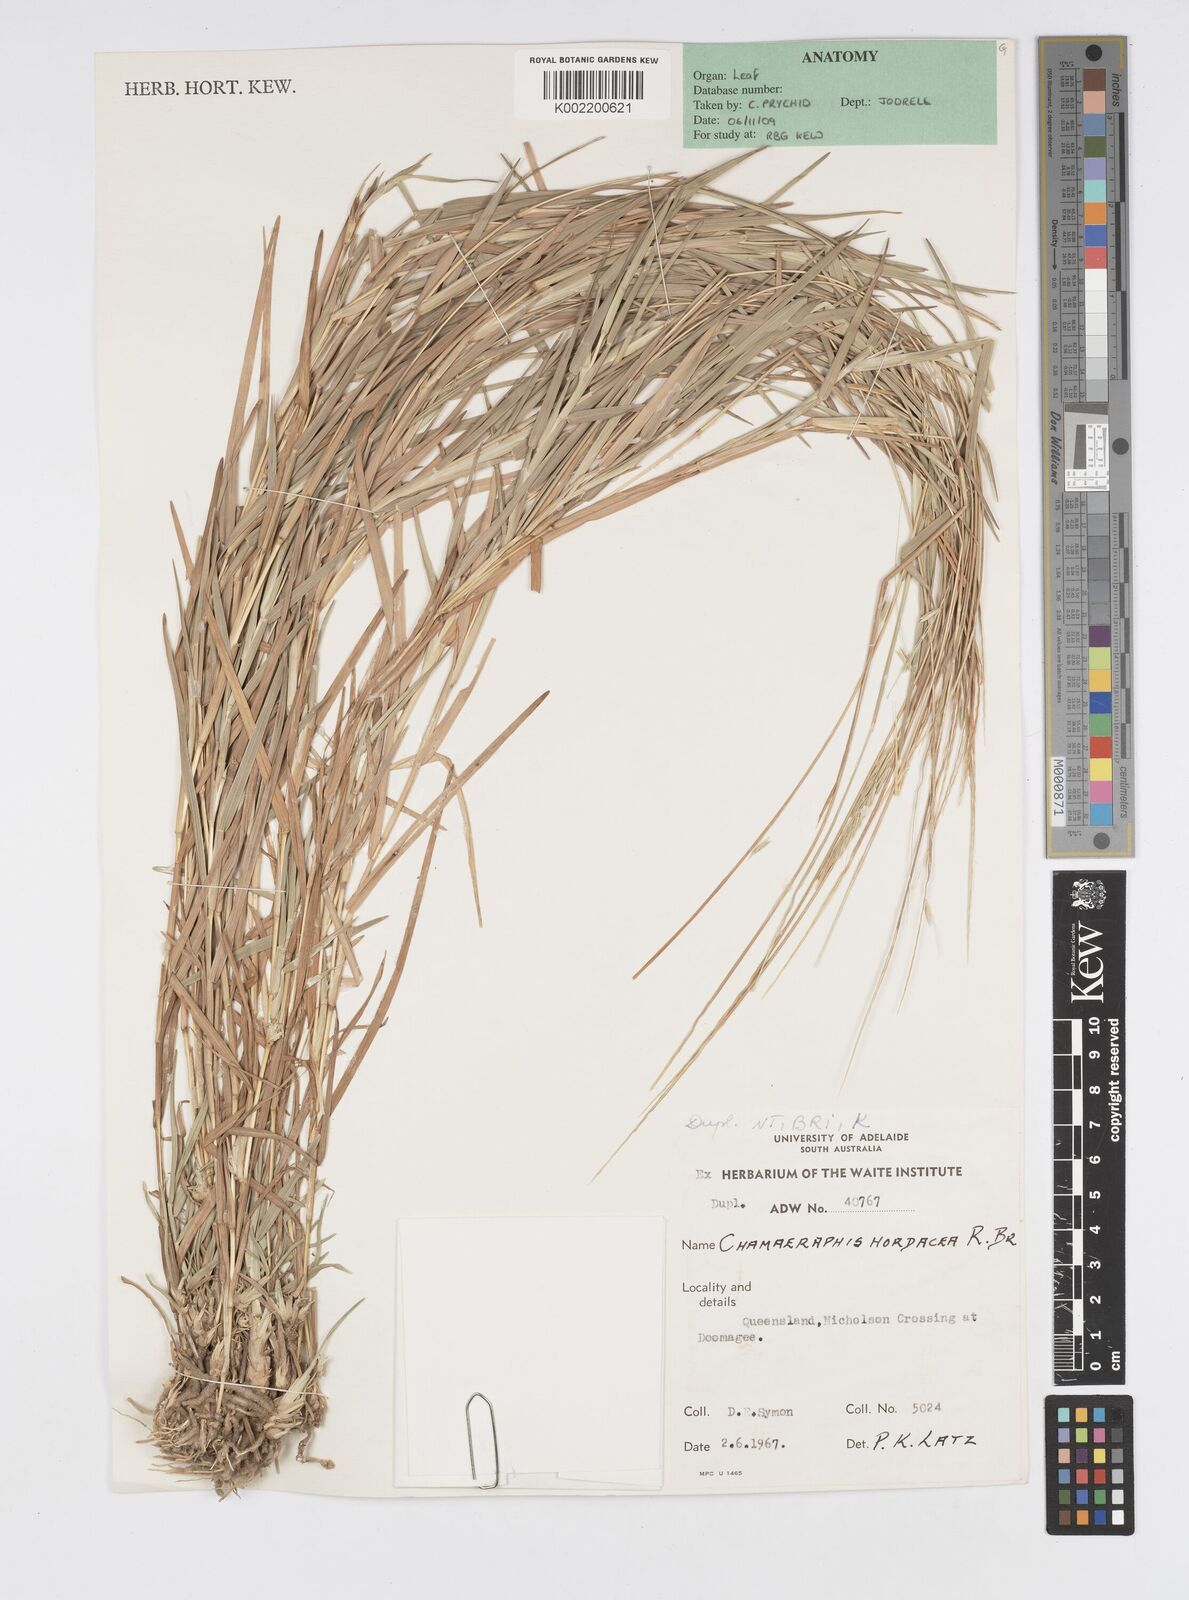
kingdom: Plantae
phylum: Tracheophyta
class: Liliopsida
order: Poales
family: Poaceae
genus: Chamaeraphis
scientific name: Chamaeraphis hordeacea
